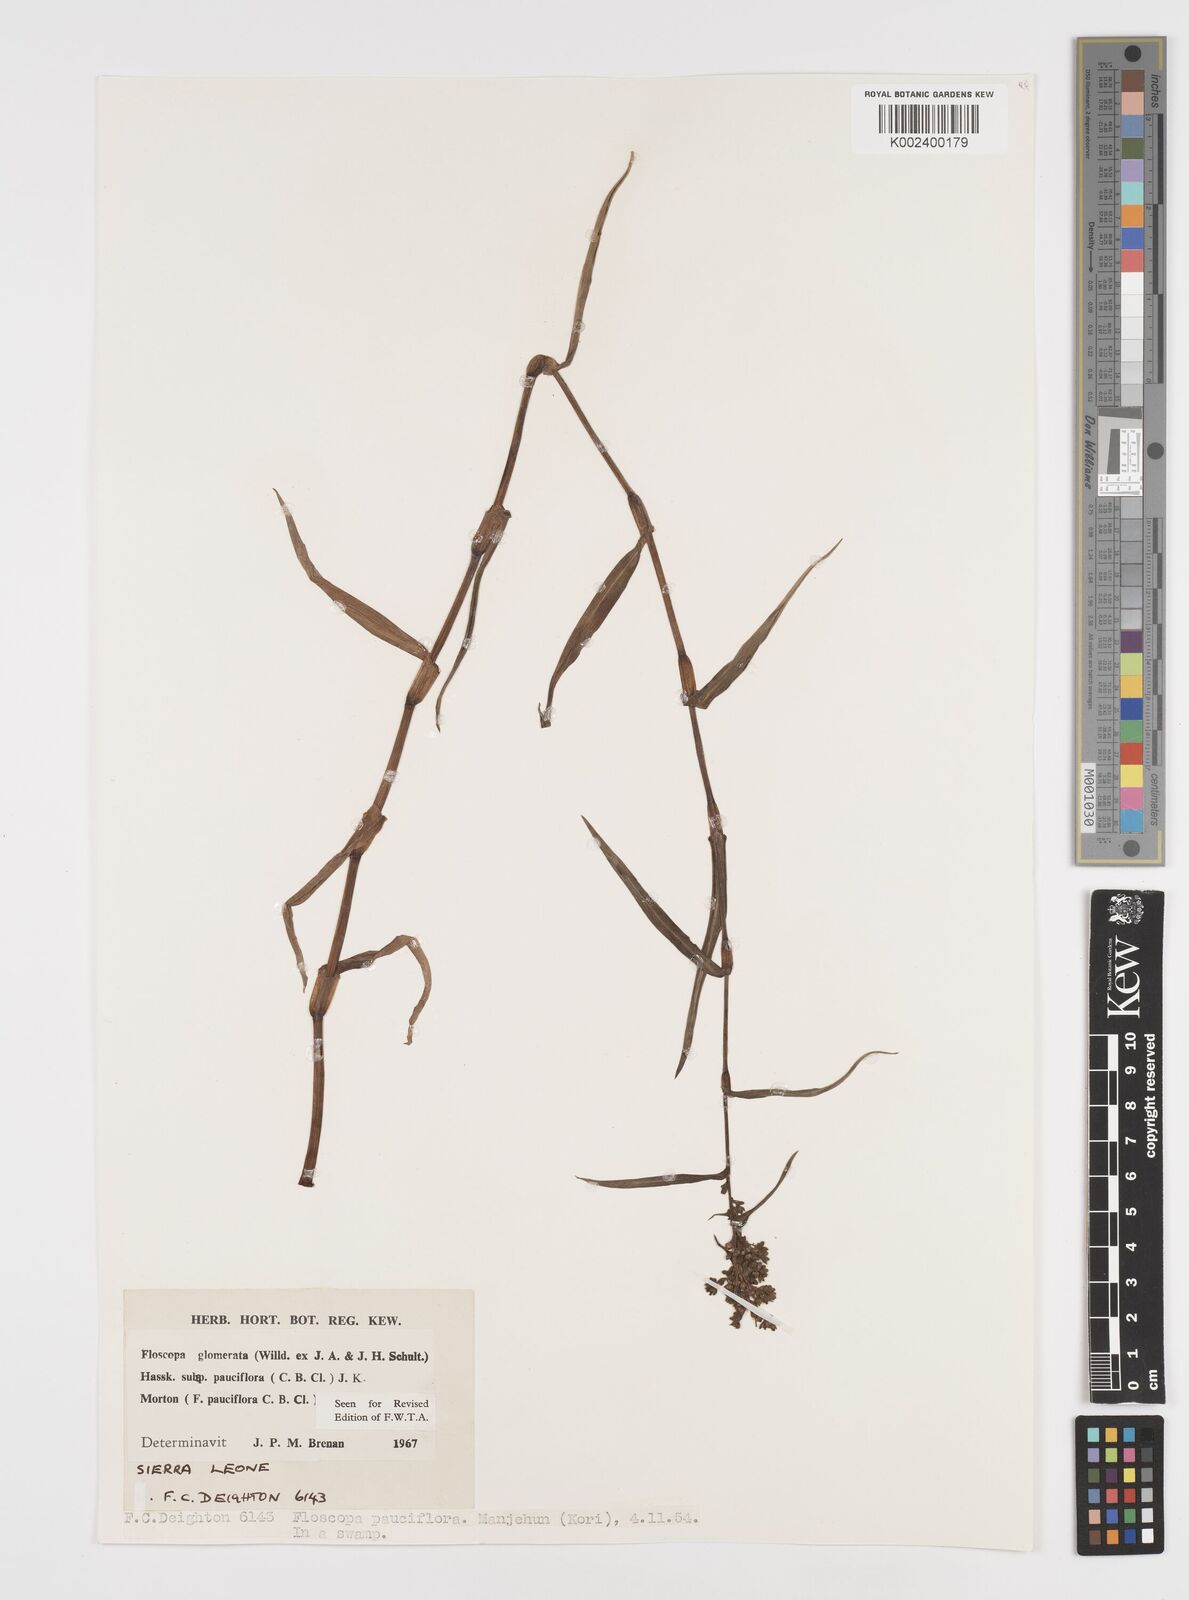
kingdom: Plantae
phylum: Tracheophyta
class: Liliopsida
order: Commelinales
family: Commelinaceae
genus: Floscopa
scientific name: Floscopa glomerata
